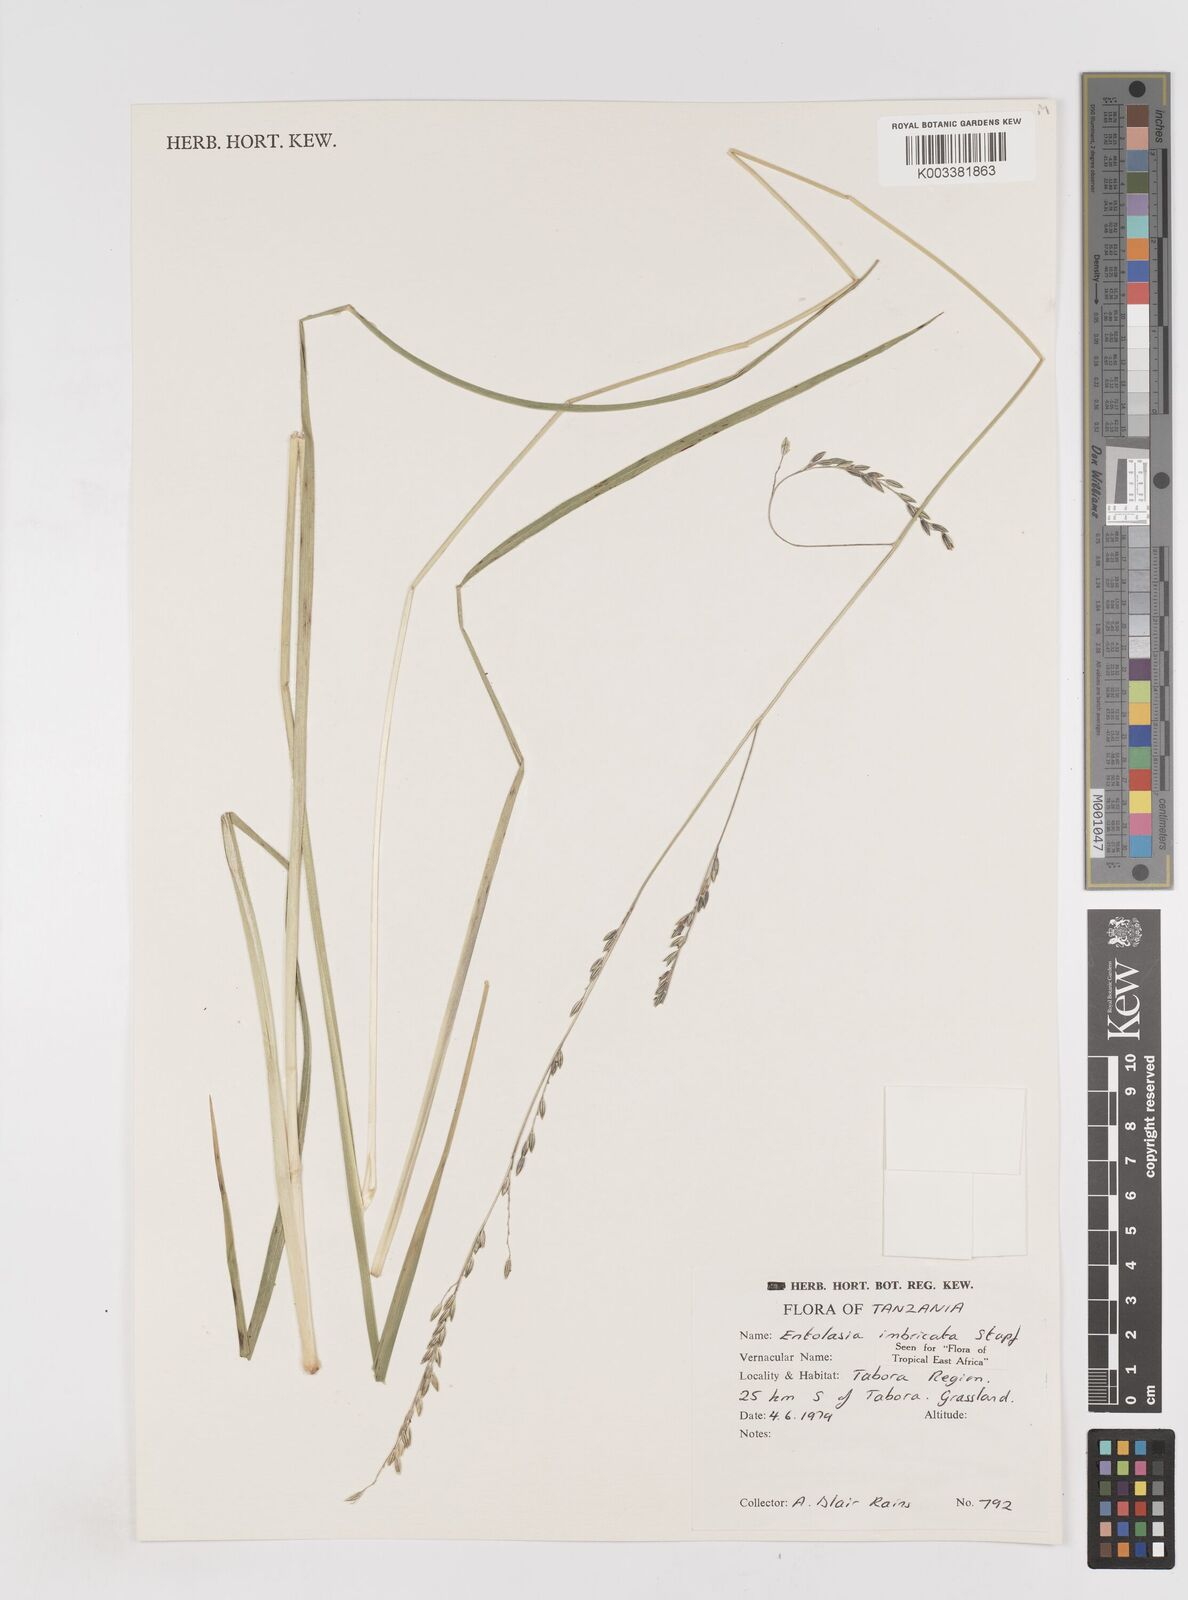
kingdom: Plantae
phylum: Tracheophyta
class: Liliopsida
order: Poales
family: Poaceae
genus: Entolasia
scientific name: Entolasia imbricata
